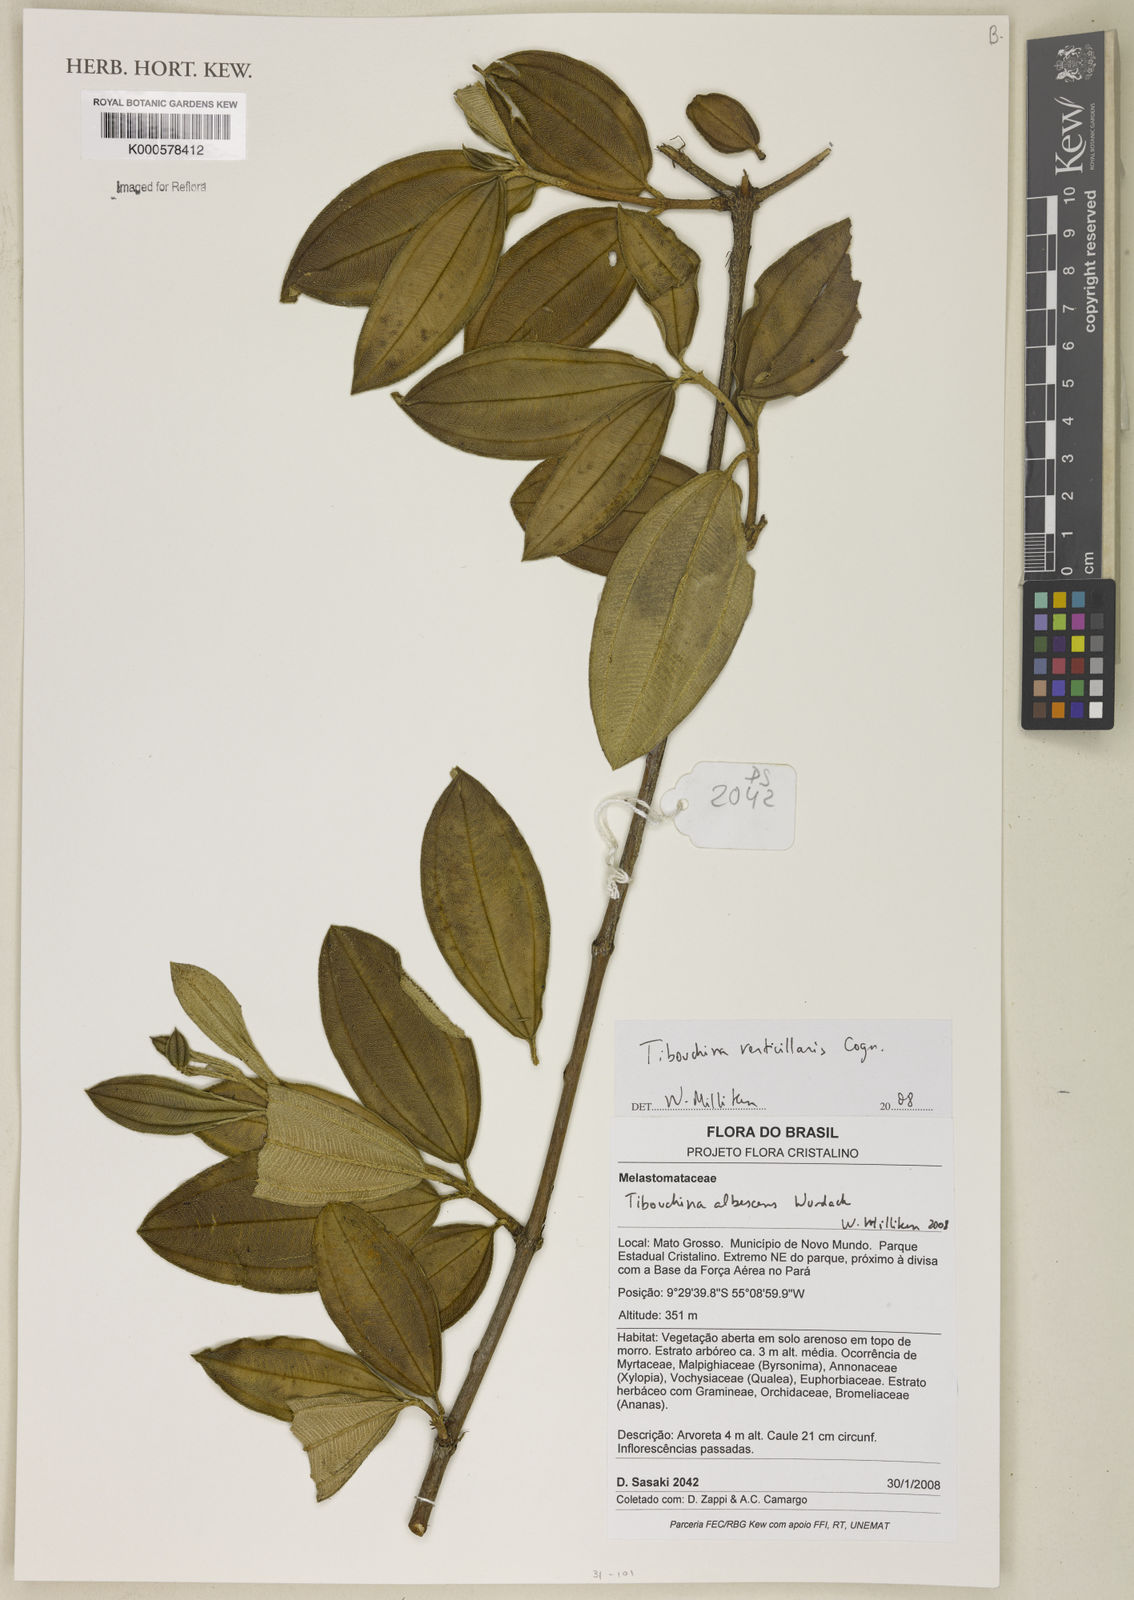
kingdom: Plantae
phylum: Tracheophyta
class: Magnoliopsida
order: Myrtales
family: Melastomataceae
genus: Tibouchina
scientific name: Tibouchina verticillaris
